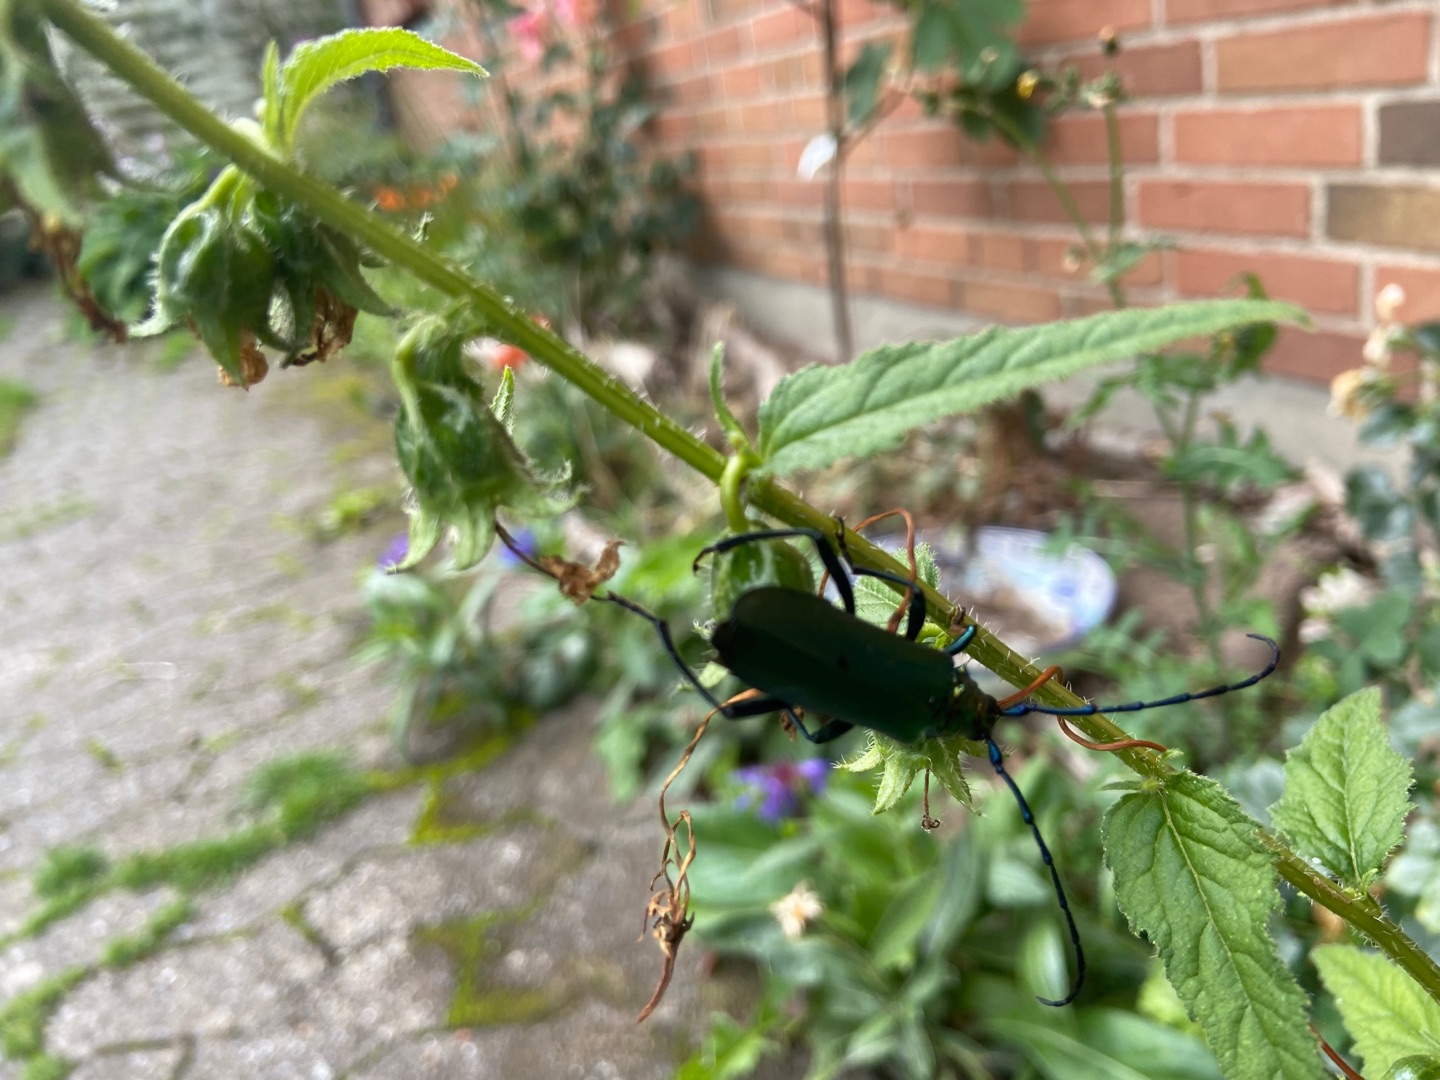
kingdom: Animalia
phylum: Arthropoda
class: Insecta
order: Coleoptera
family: Cerambycidae
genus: Aromia
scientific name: Aromia moschata
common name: Moskusbuk
